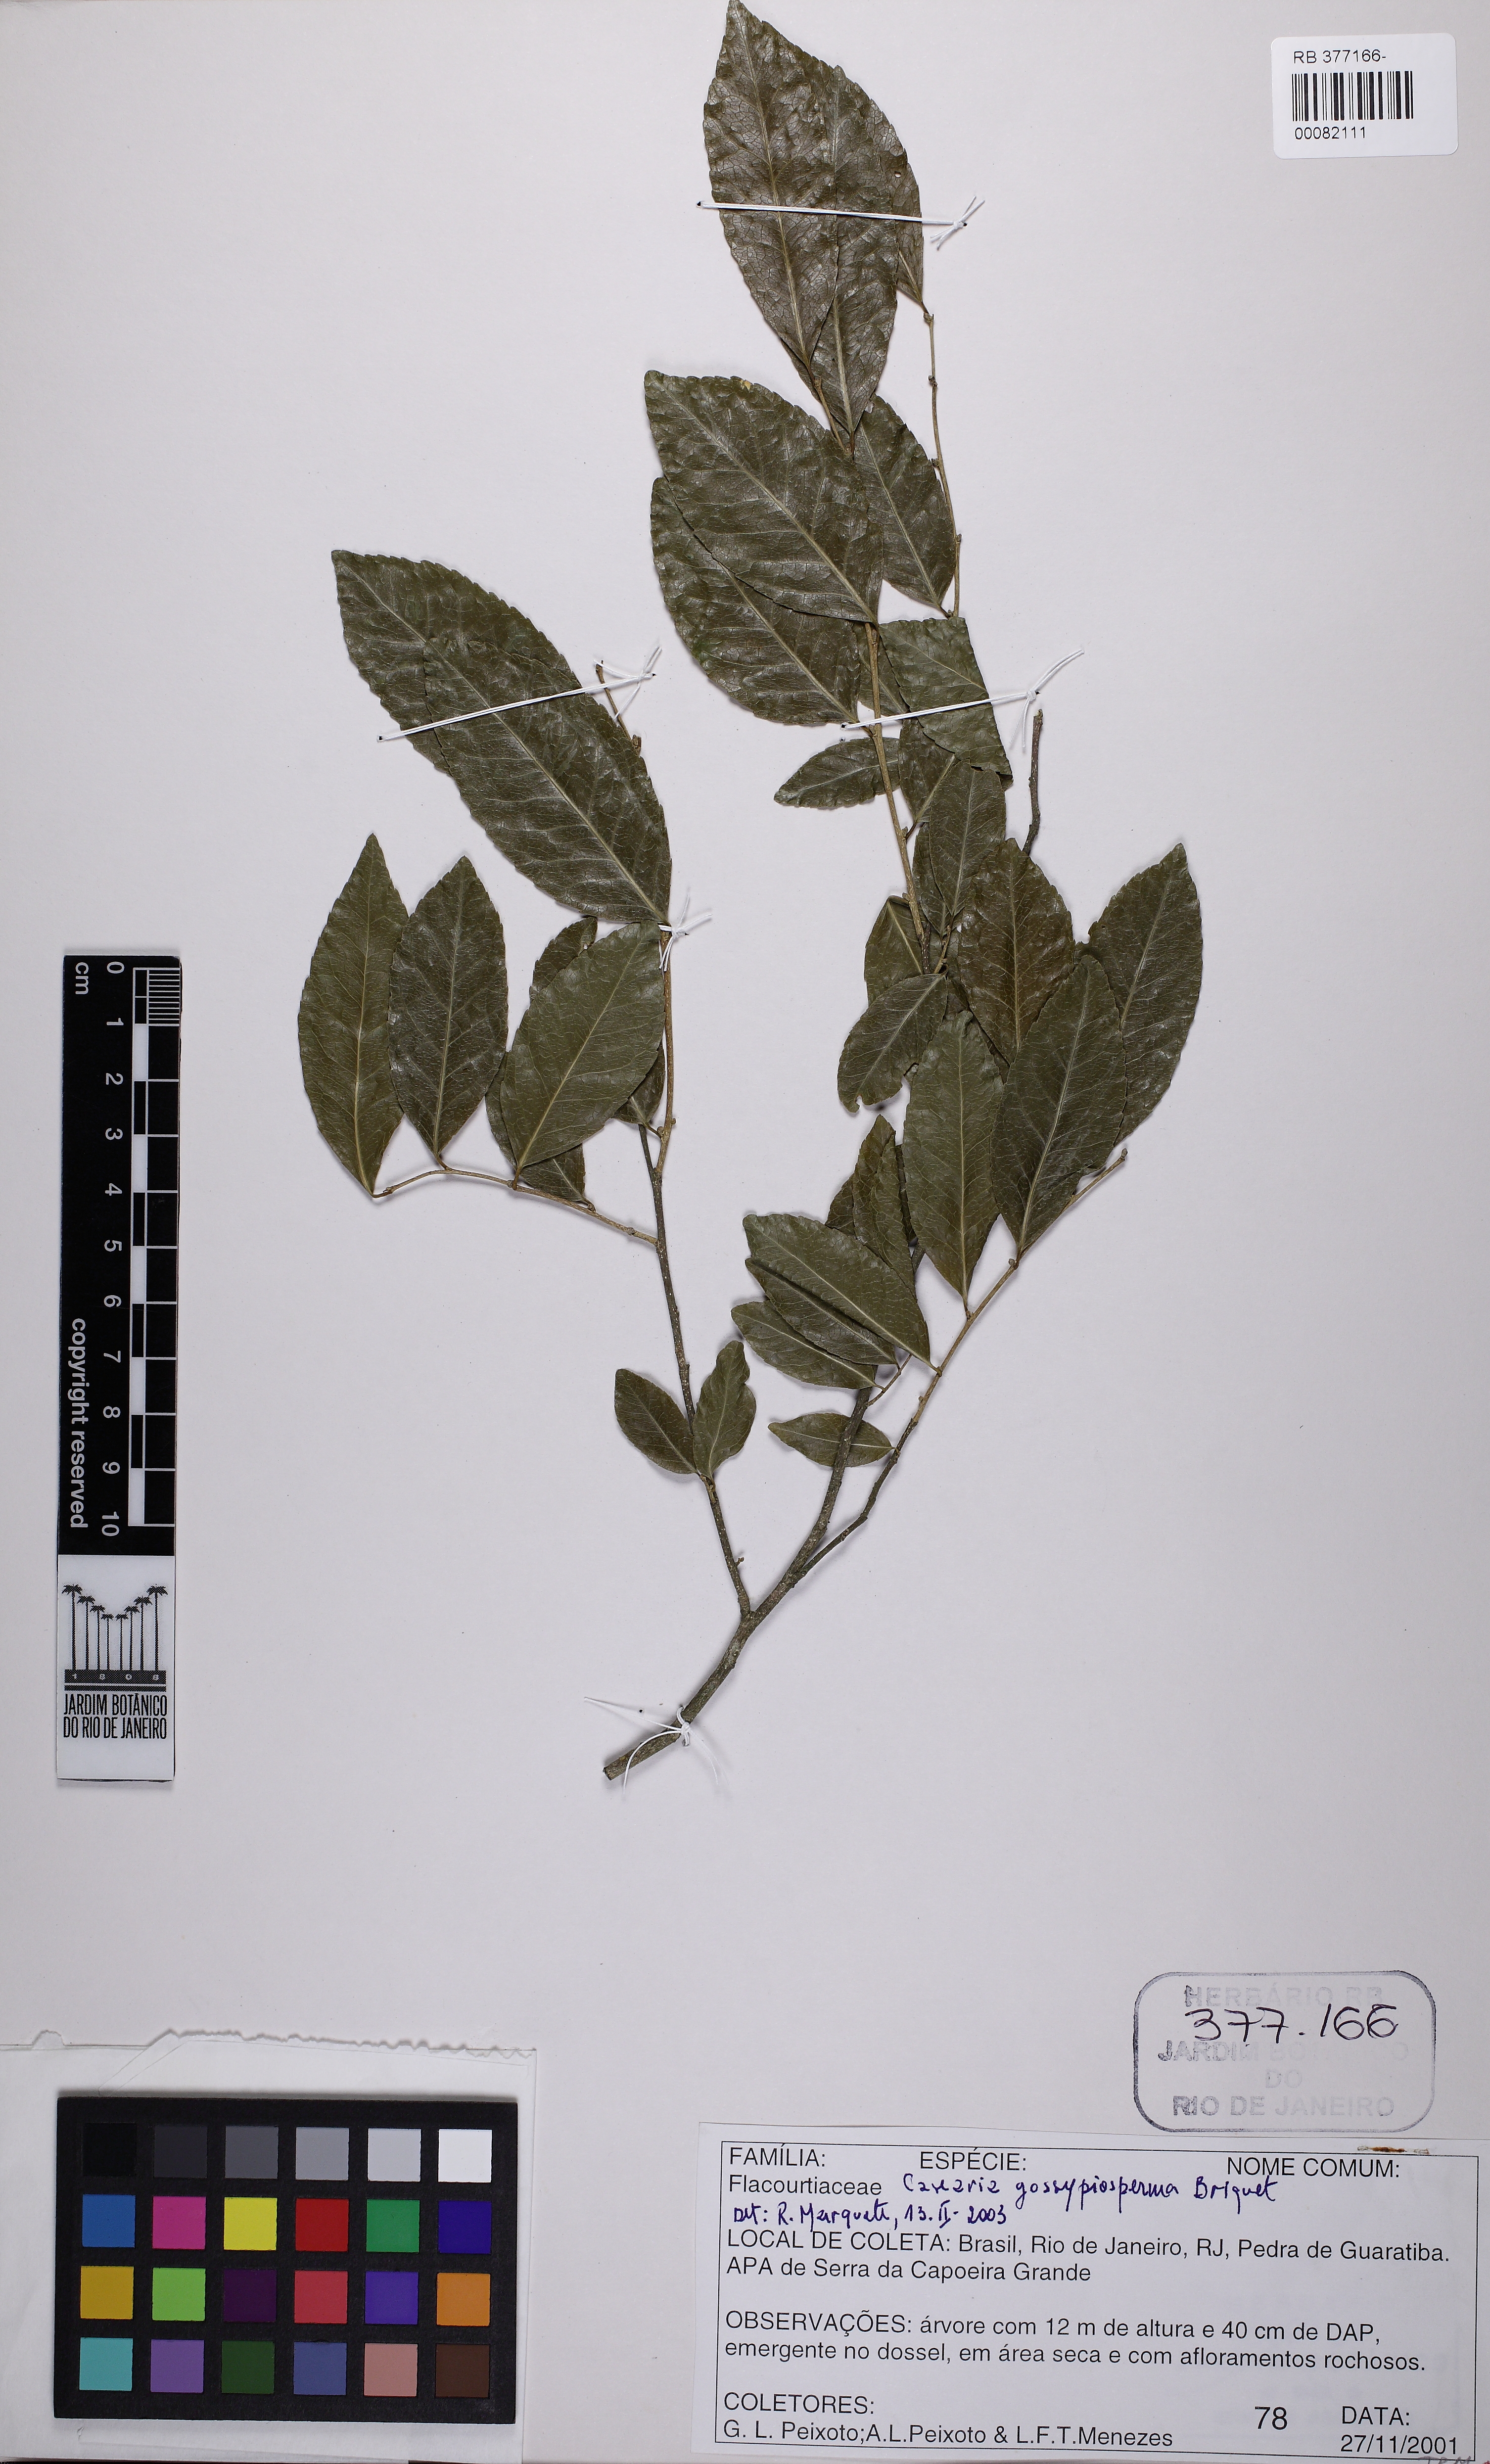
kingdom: Plantae
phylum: Tracheophyta
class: Magnoliopsida
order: Malpighiales
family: Salicaceae
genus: Casearia
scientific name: Casearia gossypiosperma
